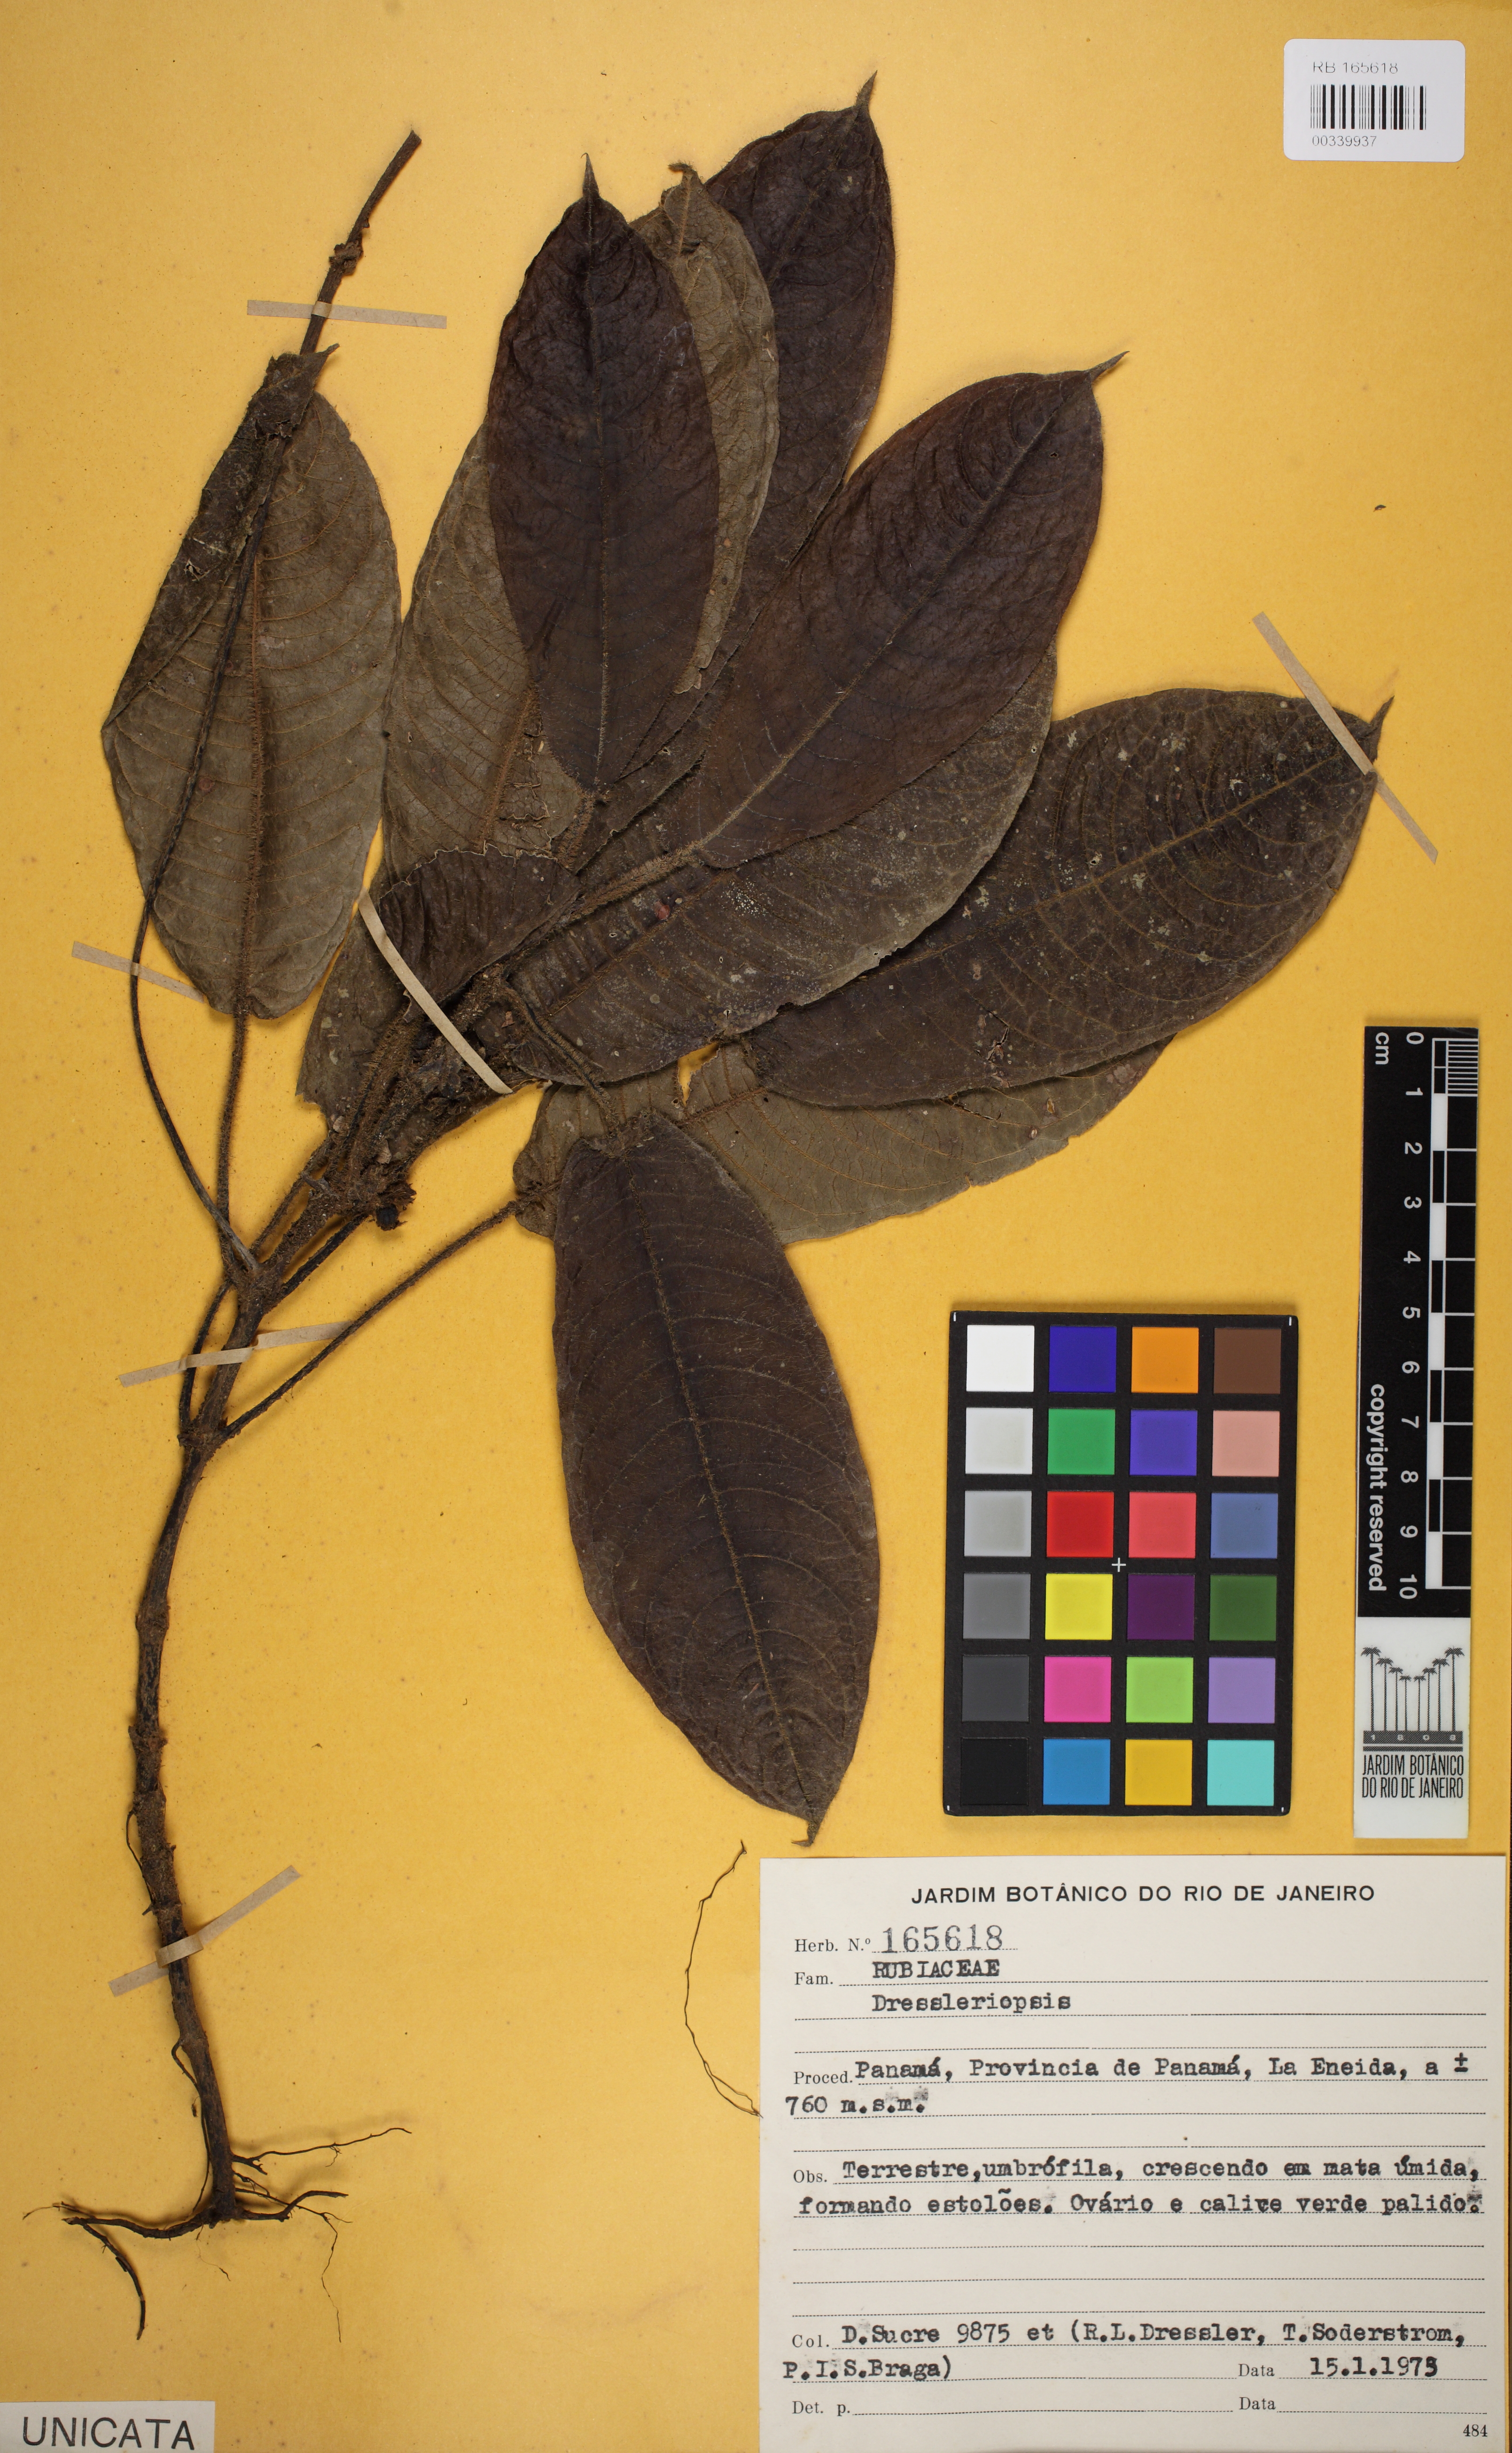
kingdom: Plantae
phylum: Tracheophyta
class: Magnoliopsida
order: Gentianales
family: Rubiaceae
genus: Lasianthus
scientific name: Lasianthus
